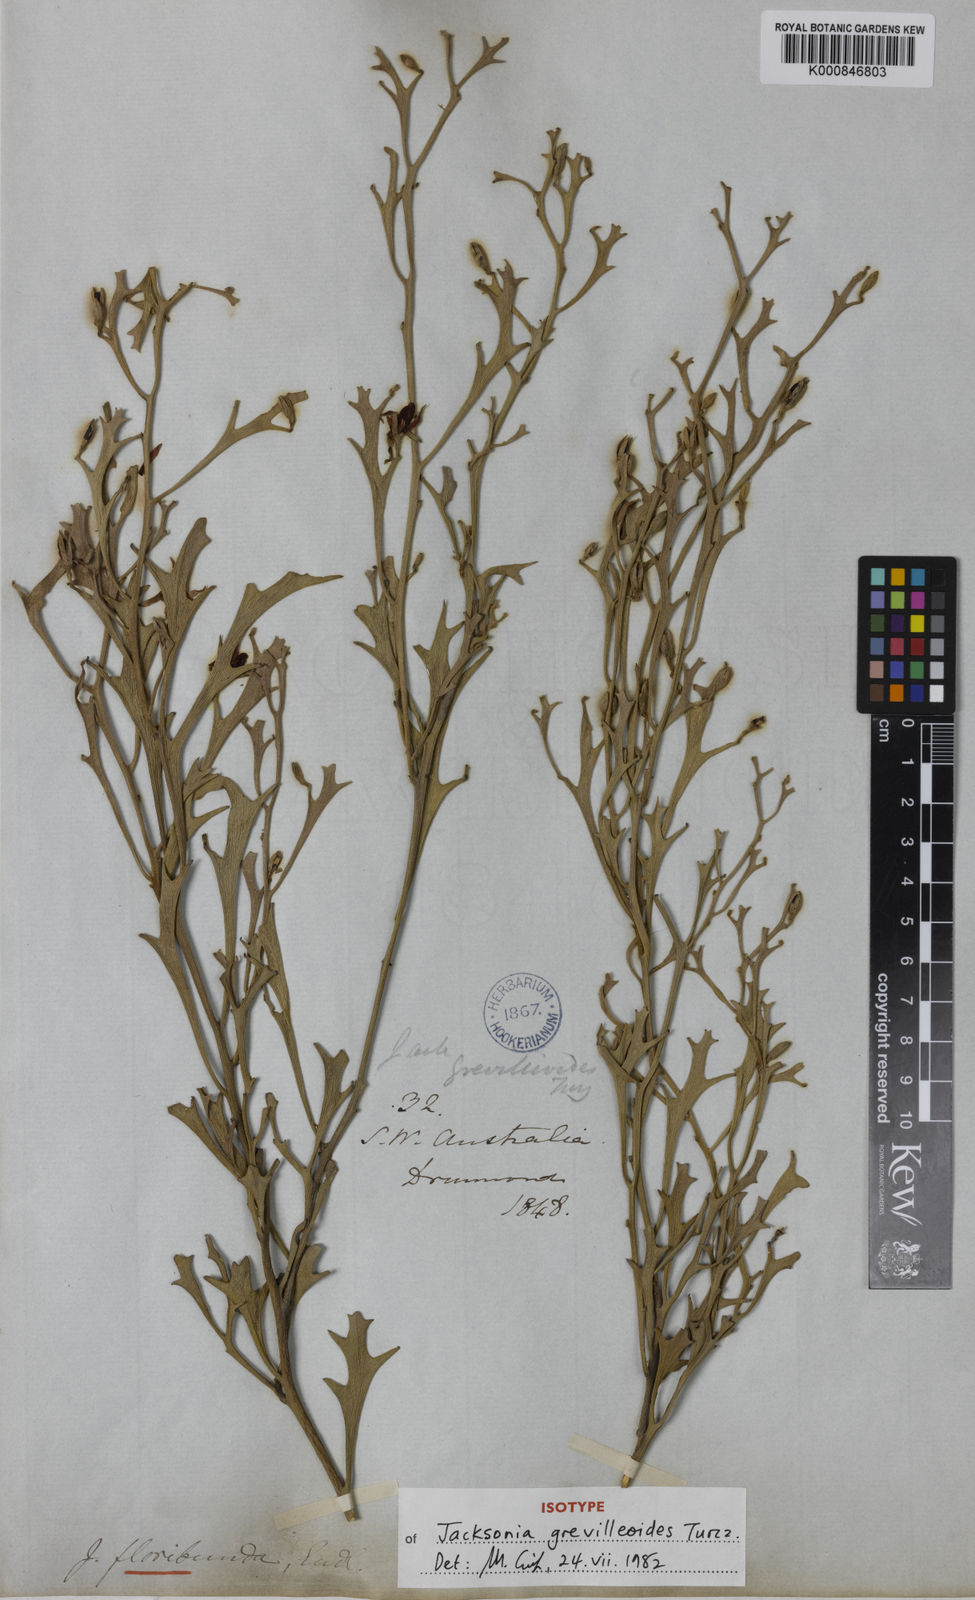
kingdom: Plantae
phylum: Tracheophyta
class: Magnoliopsida
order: Fabales
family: Fabaceae
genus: Jacksonia
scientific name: Jacksonia grevilleoides
